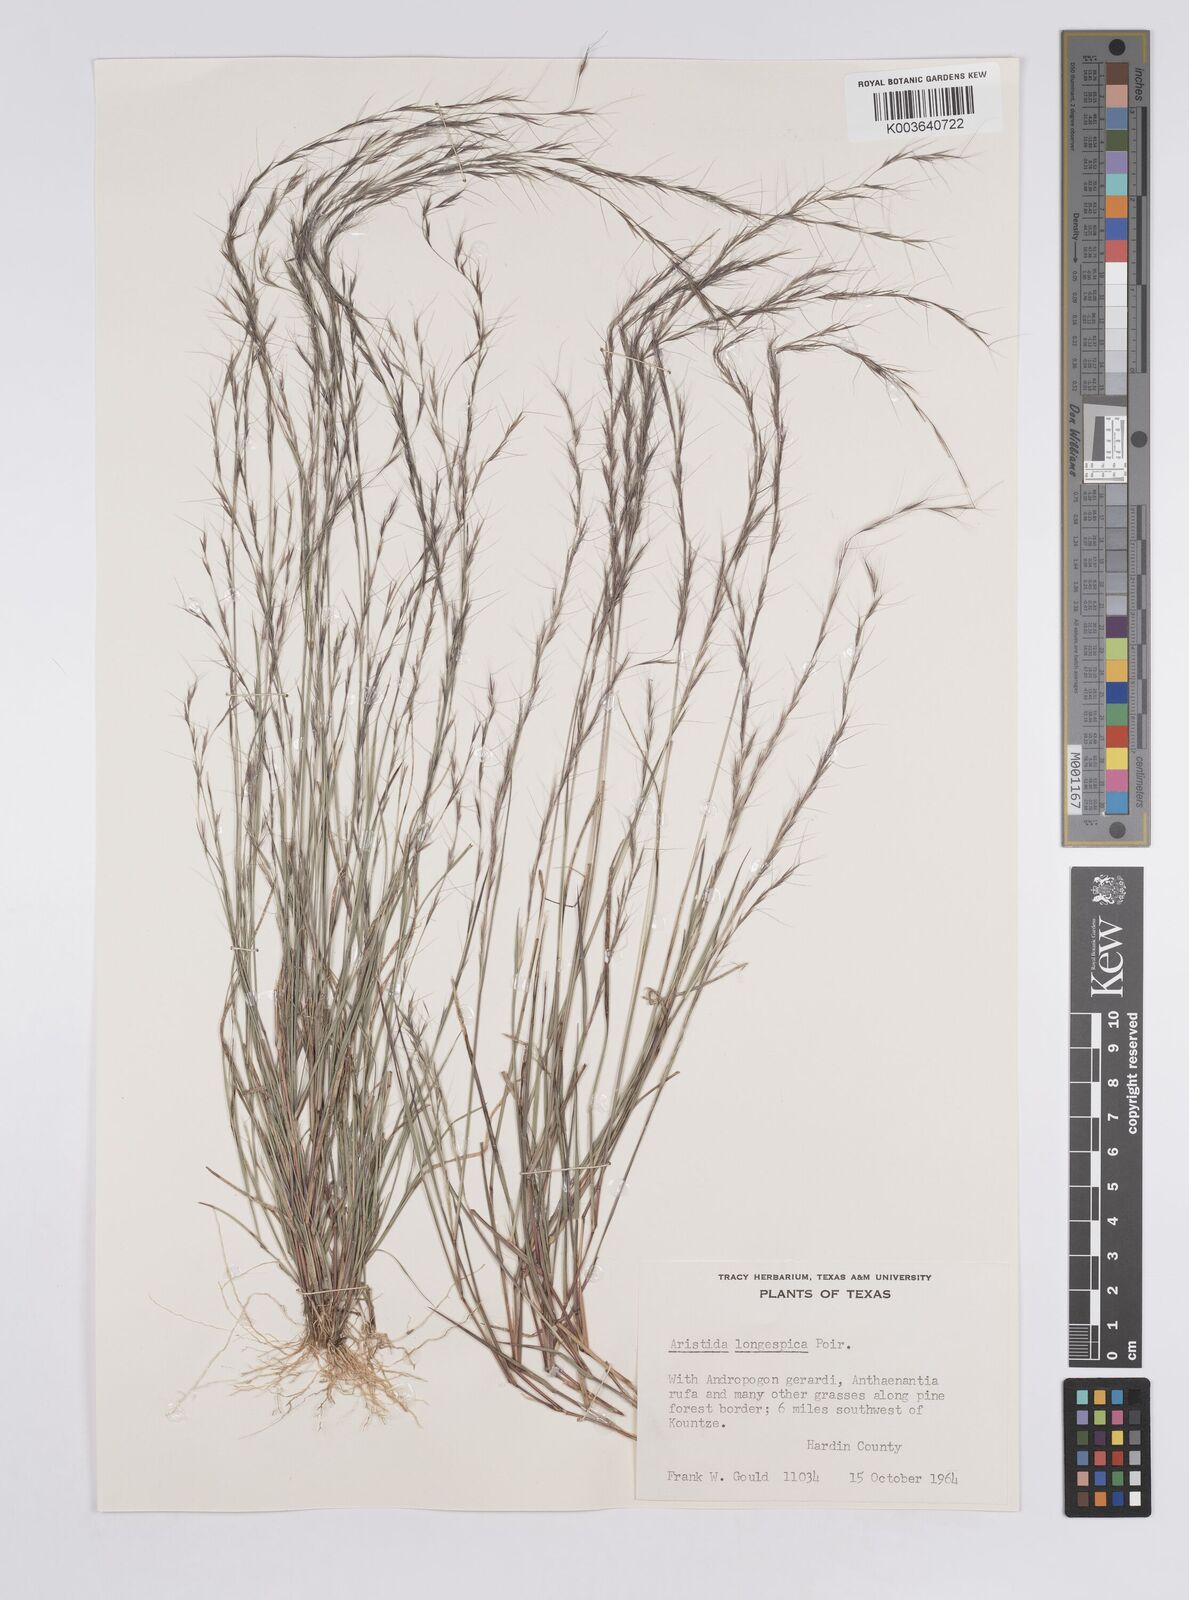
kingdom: Plantae
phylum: Tracheophyta
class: Liliopsida
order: Poales
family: Poaceae
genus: Aristida
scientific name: Aristida longespica
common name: Long-spiked triple-awned grass
